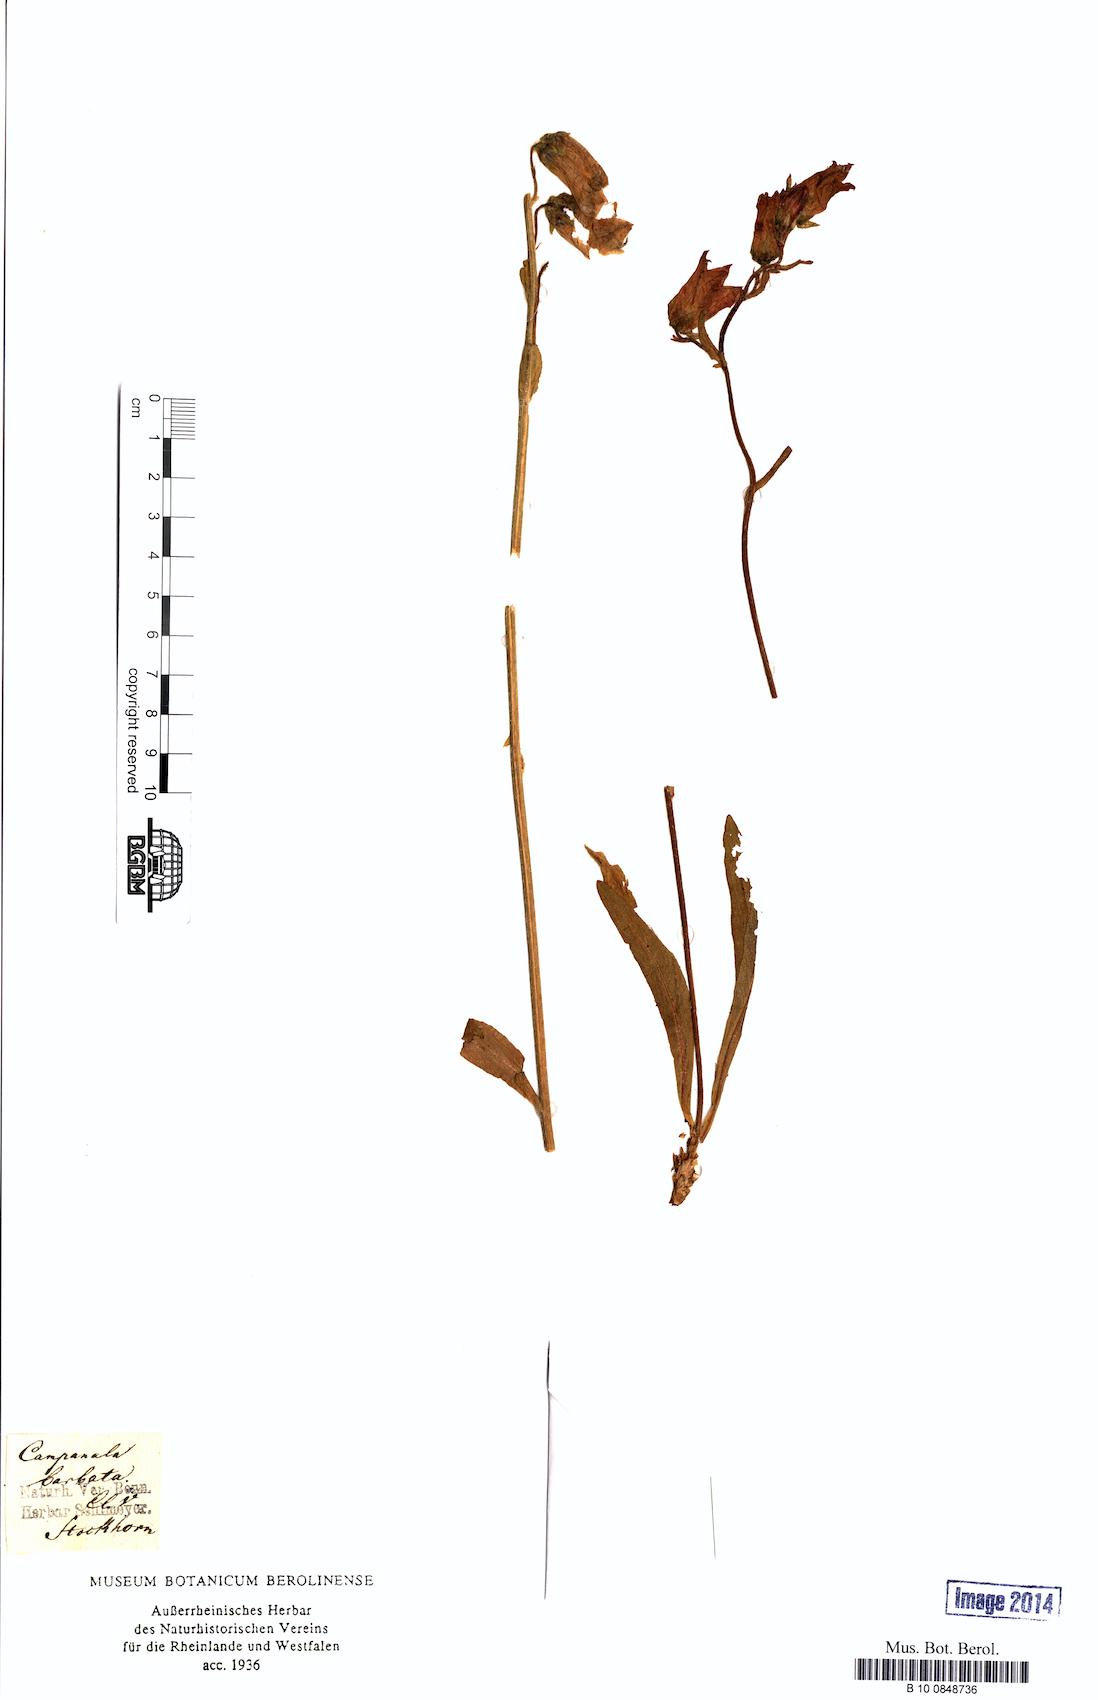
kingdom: Plantae
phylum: Tracheophyta
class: Magnoliopsida
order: Asterales
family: Campanulaceae
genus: Campanula
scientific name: Campanula barbata
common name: Bearded bellflower
